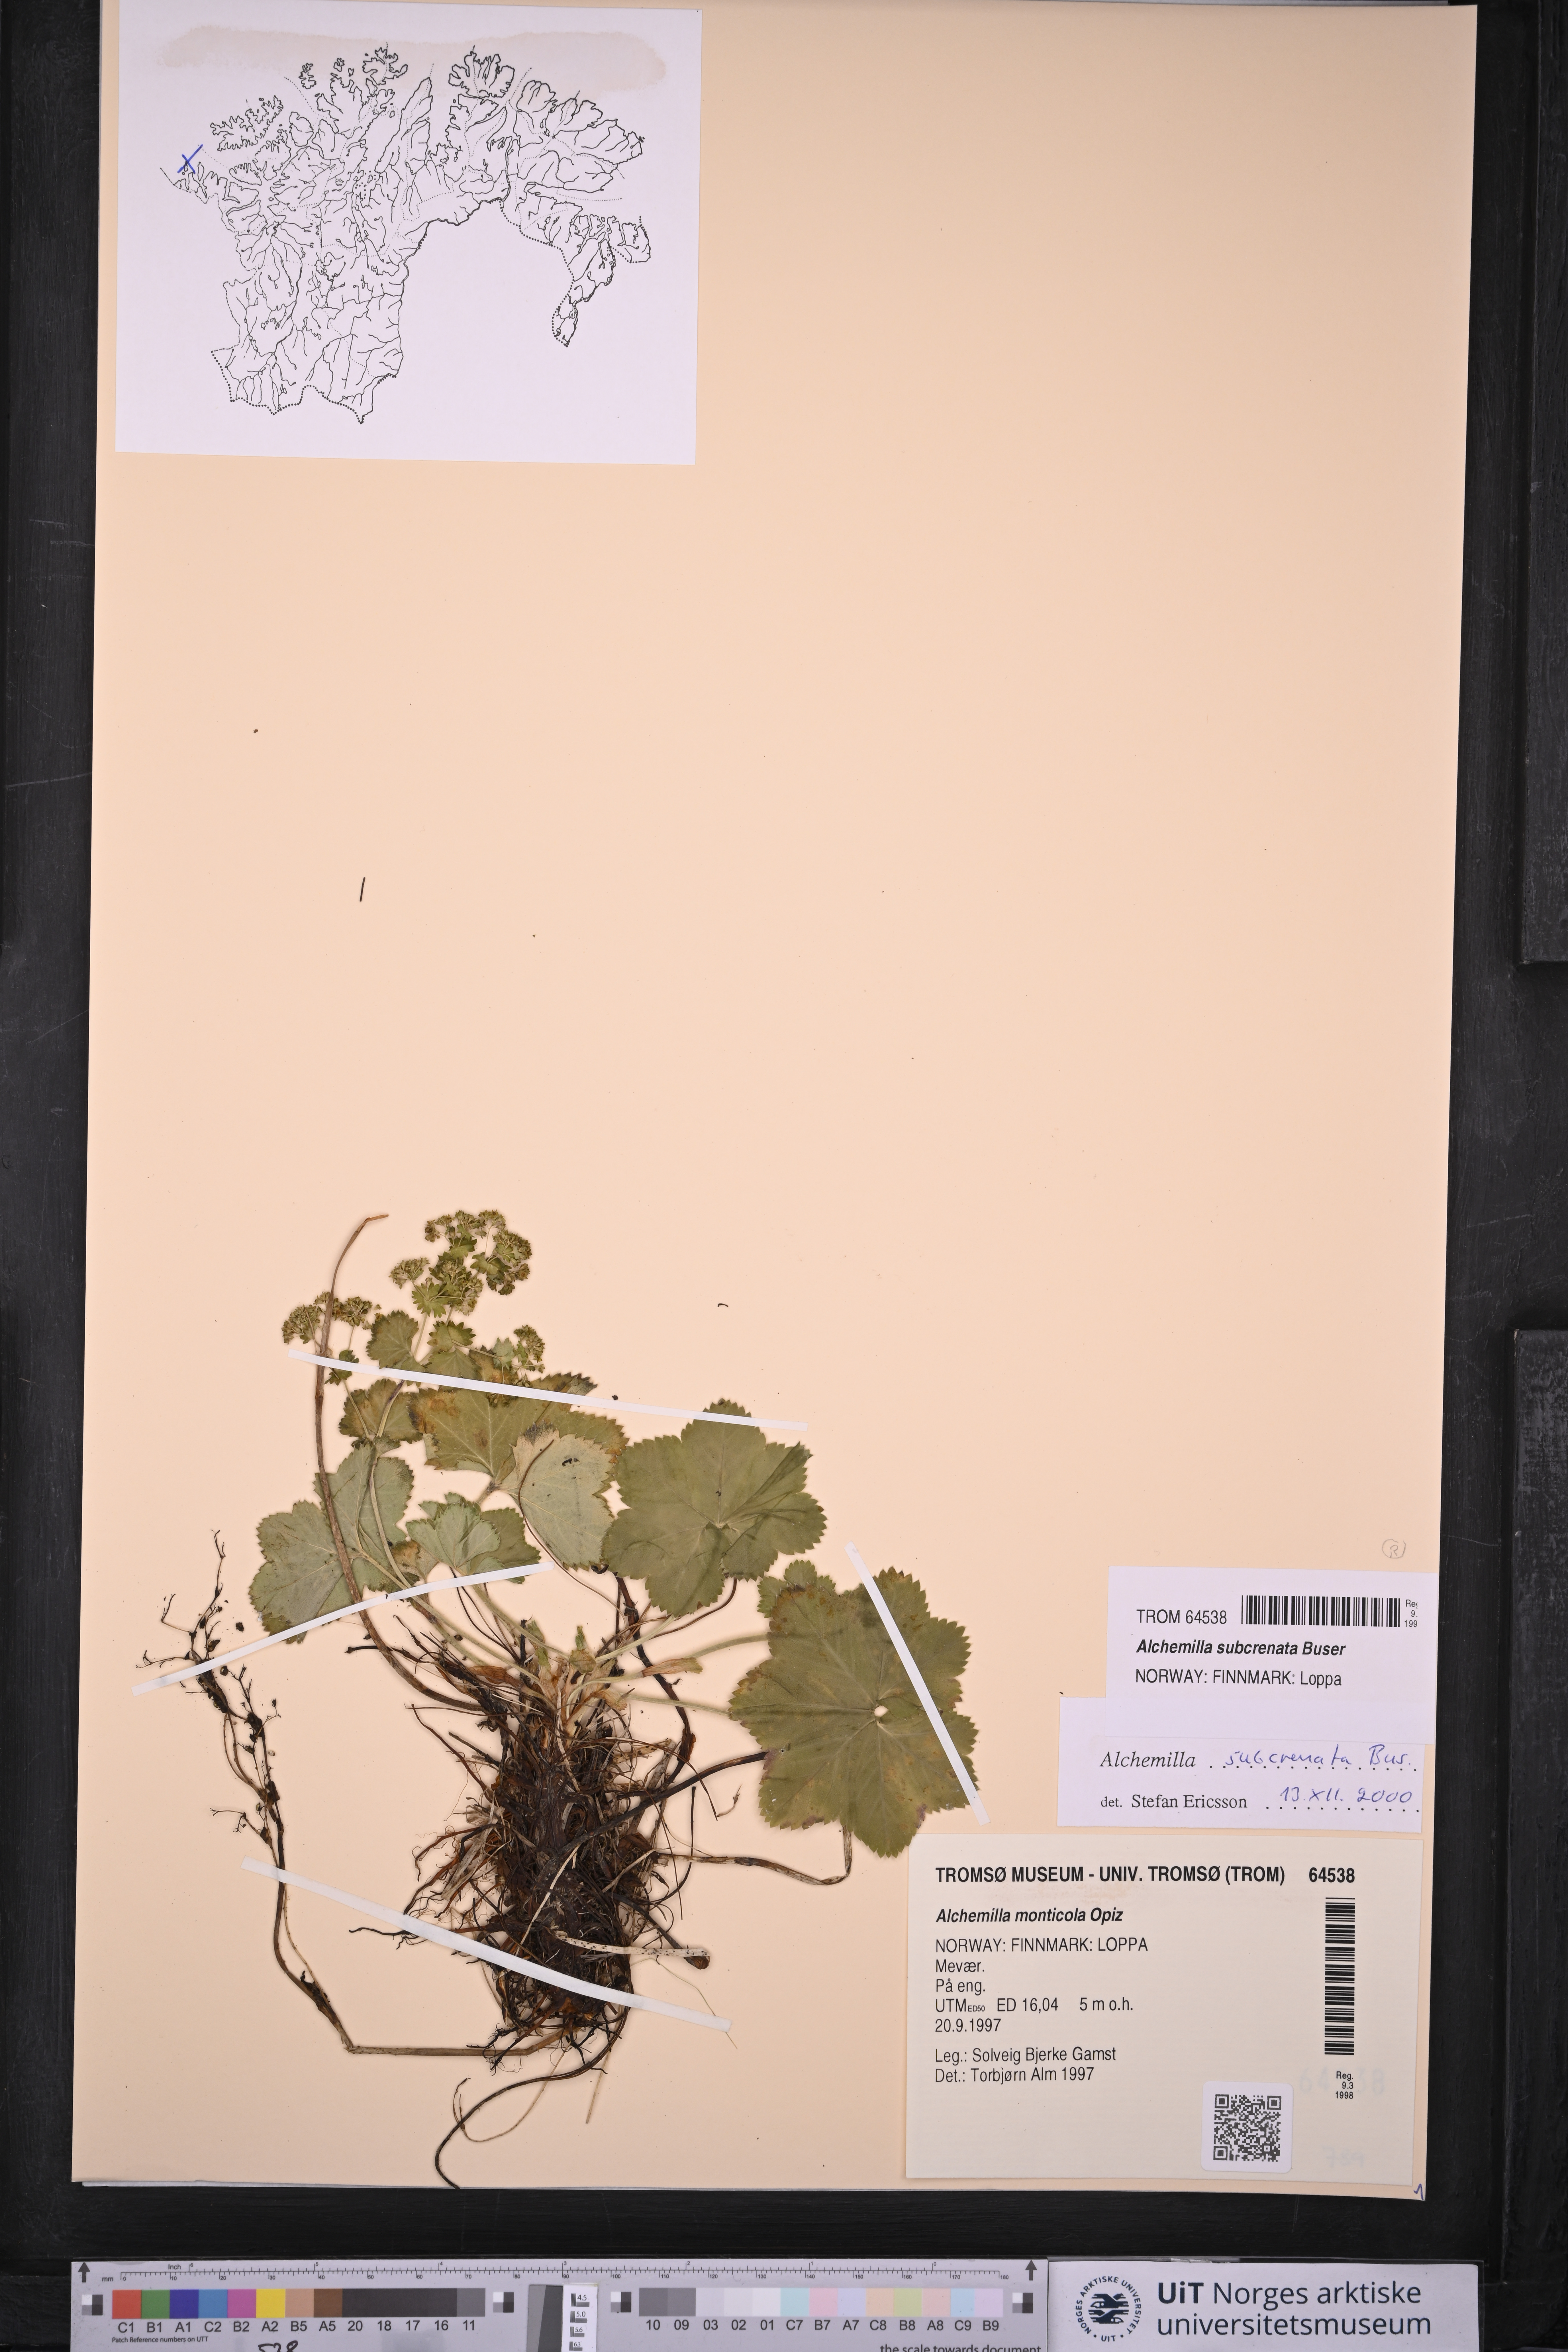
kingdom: Plantae
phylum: Tracheophyta
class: Magnoliopsida
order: Rosales
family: Rosaceae
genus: Alchemilla
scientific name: Alchemilla subcrenata
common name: Broadtooth lady's mantle
